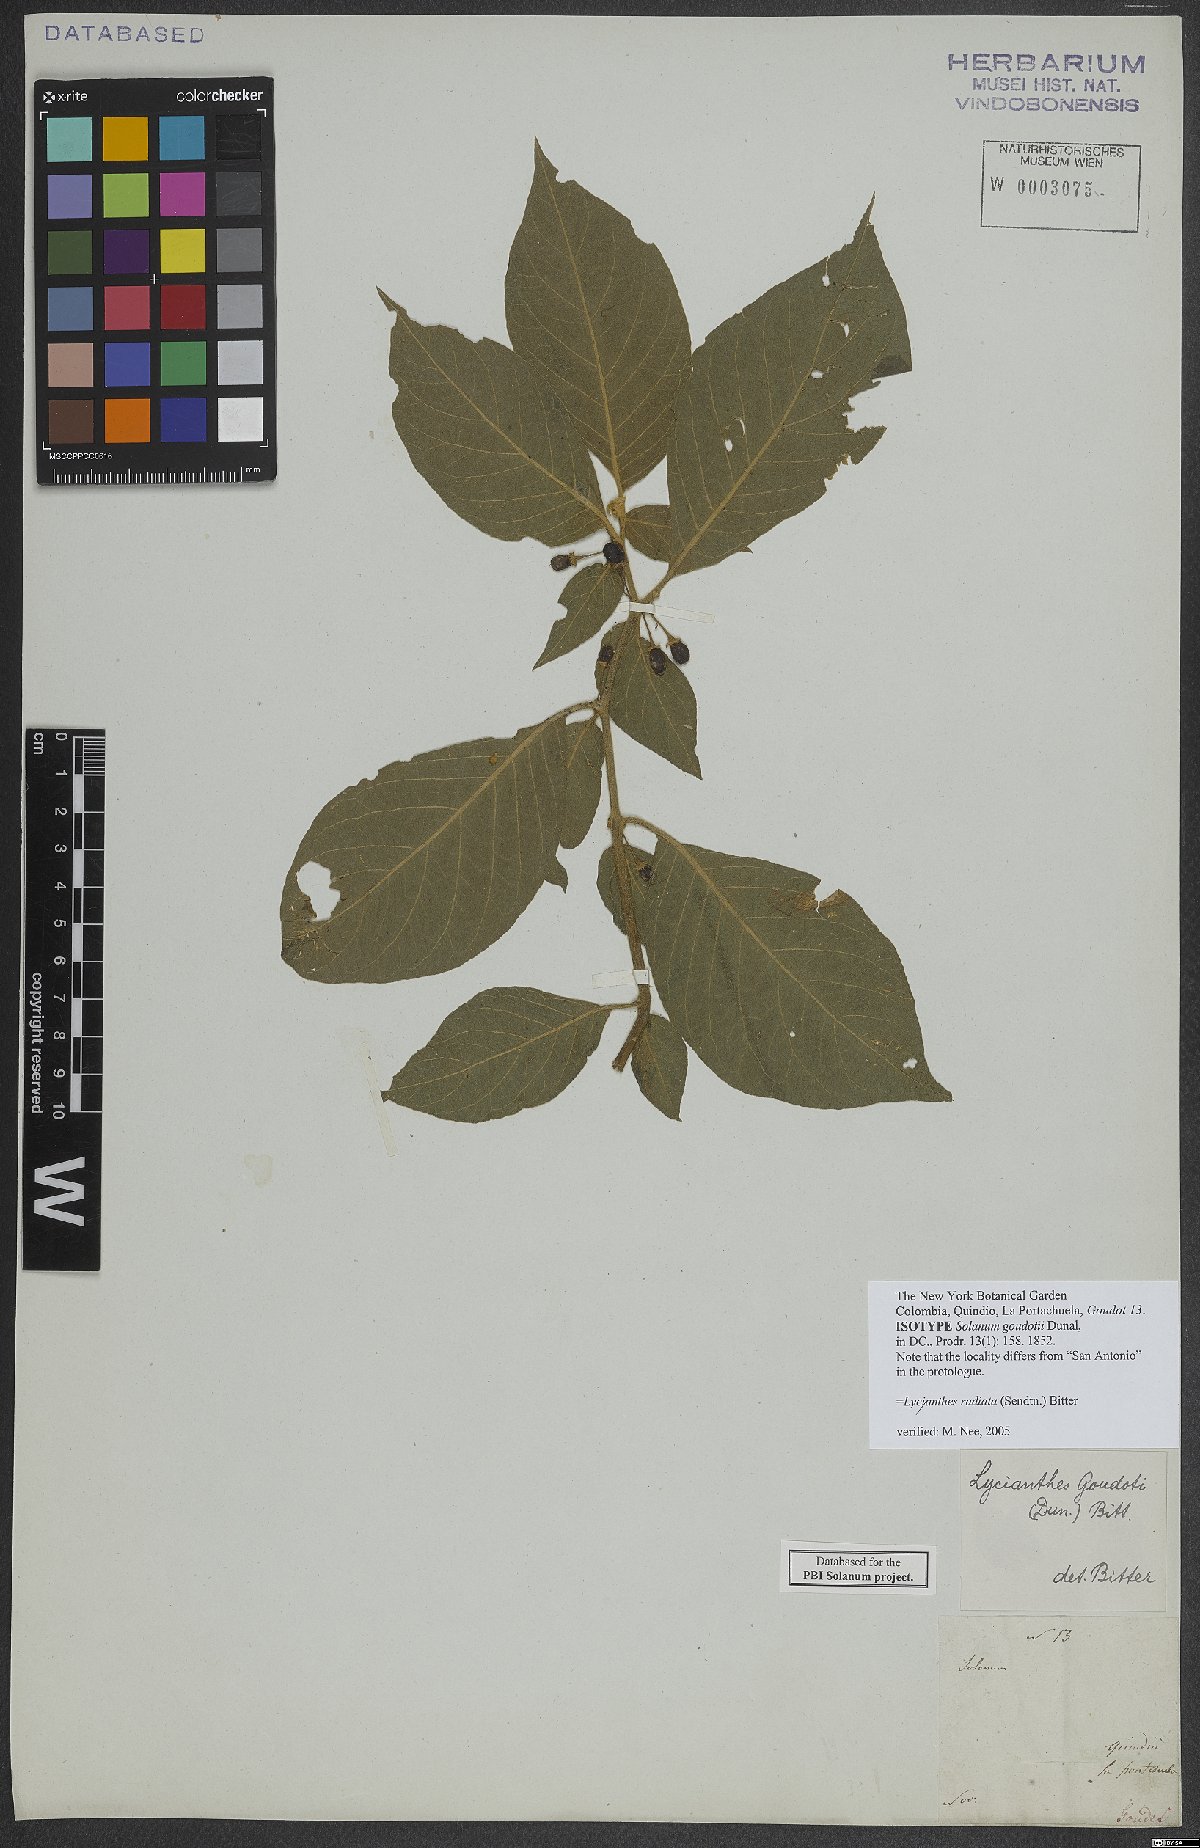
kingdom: Plantae
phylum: Tracheophyta
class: Magnoliopsida
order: Solanales
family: Solanaceae
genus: Lycianthes
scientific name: Lycianthes radiata
